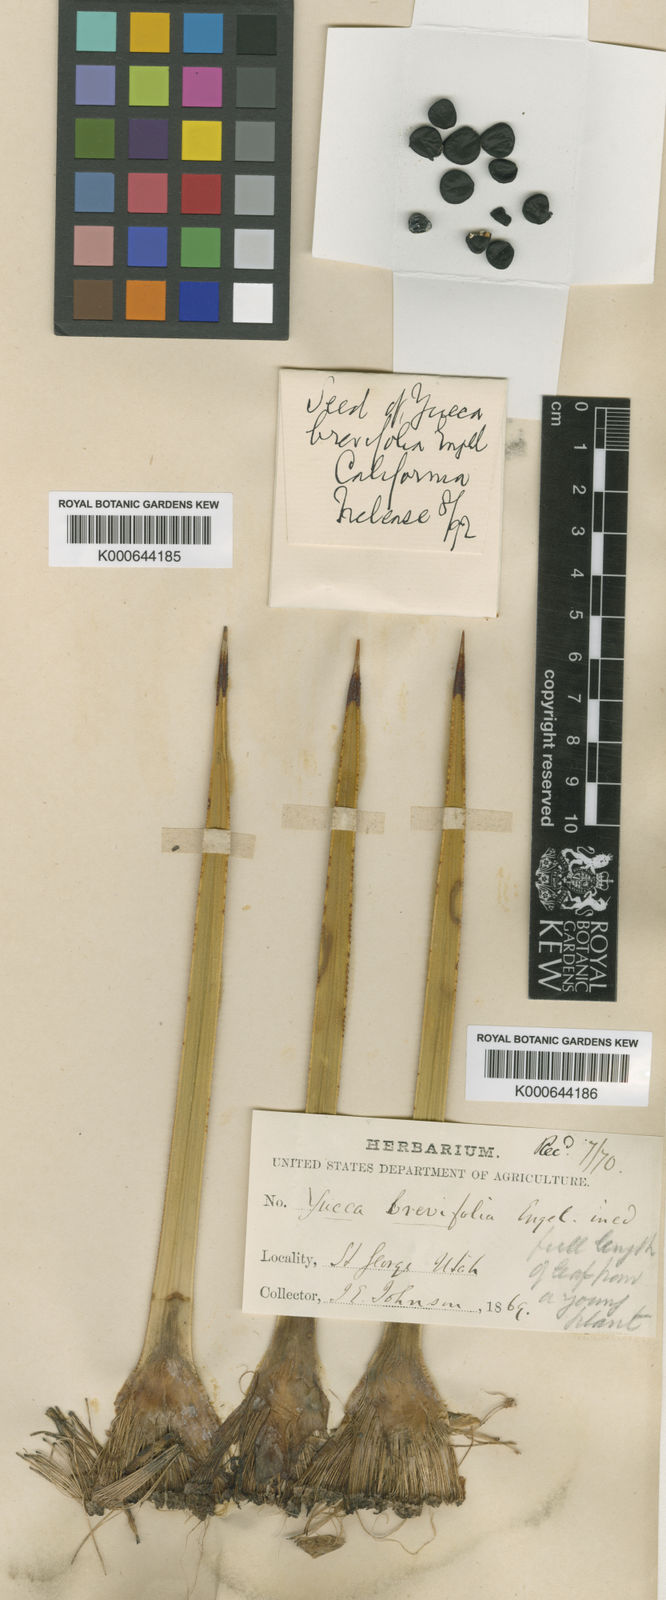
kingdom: Plantae
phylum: Tracheophyta
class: Liliopsida
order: Asparagales
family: Asparagaceae
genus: Yucca
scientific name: Yucca brevifolia
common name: Joshua tree
